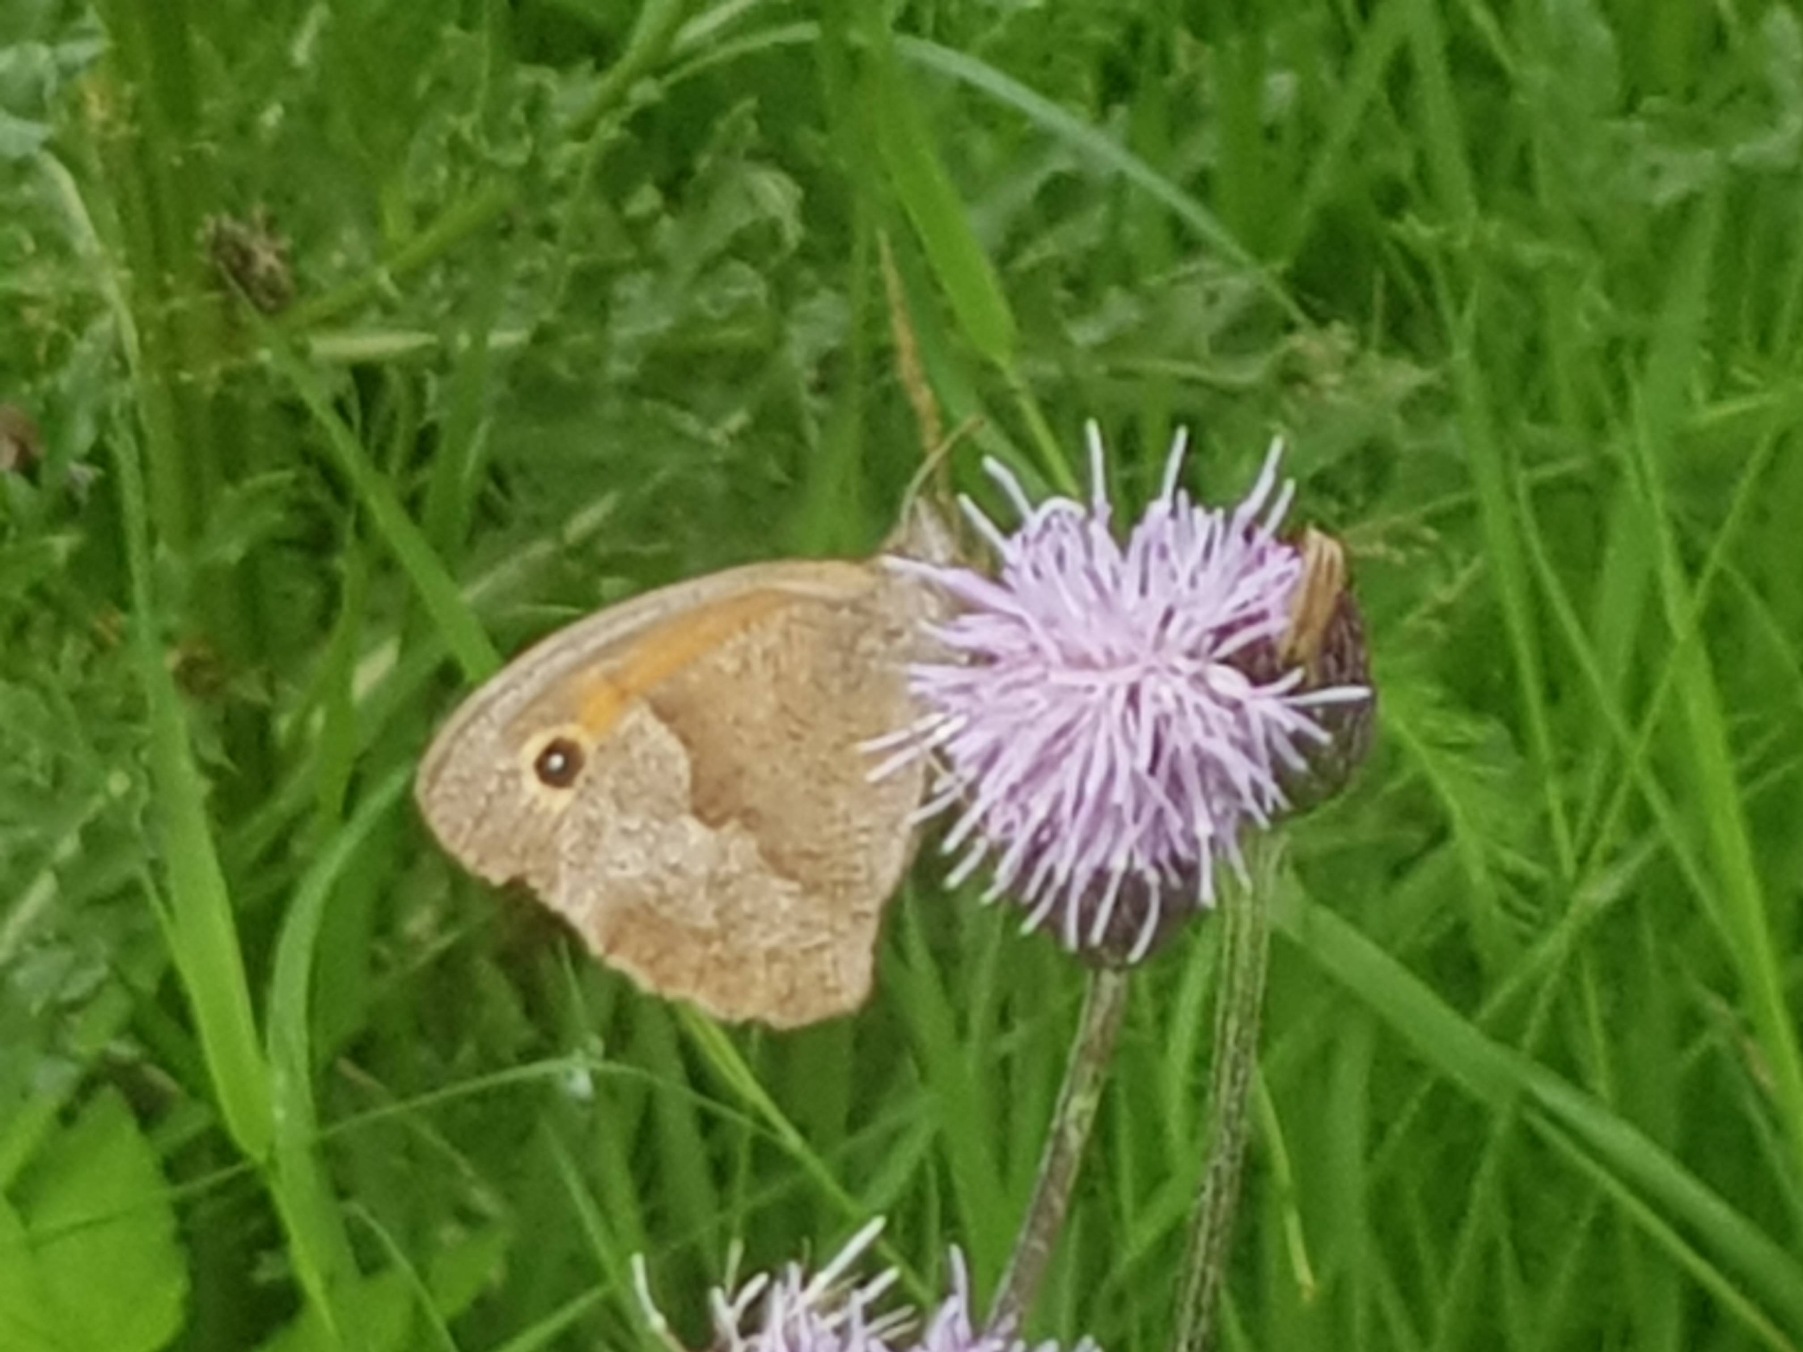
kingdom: Animalia
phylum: Arthropoda
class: Insecta
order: Lepidoptera
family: Nymphalidae
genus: Maniola
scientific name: Maniola jurtina
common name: Græsrandøje
